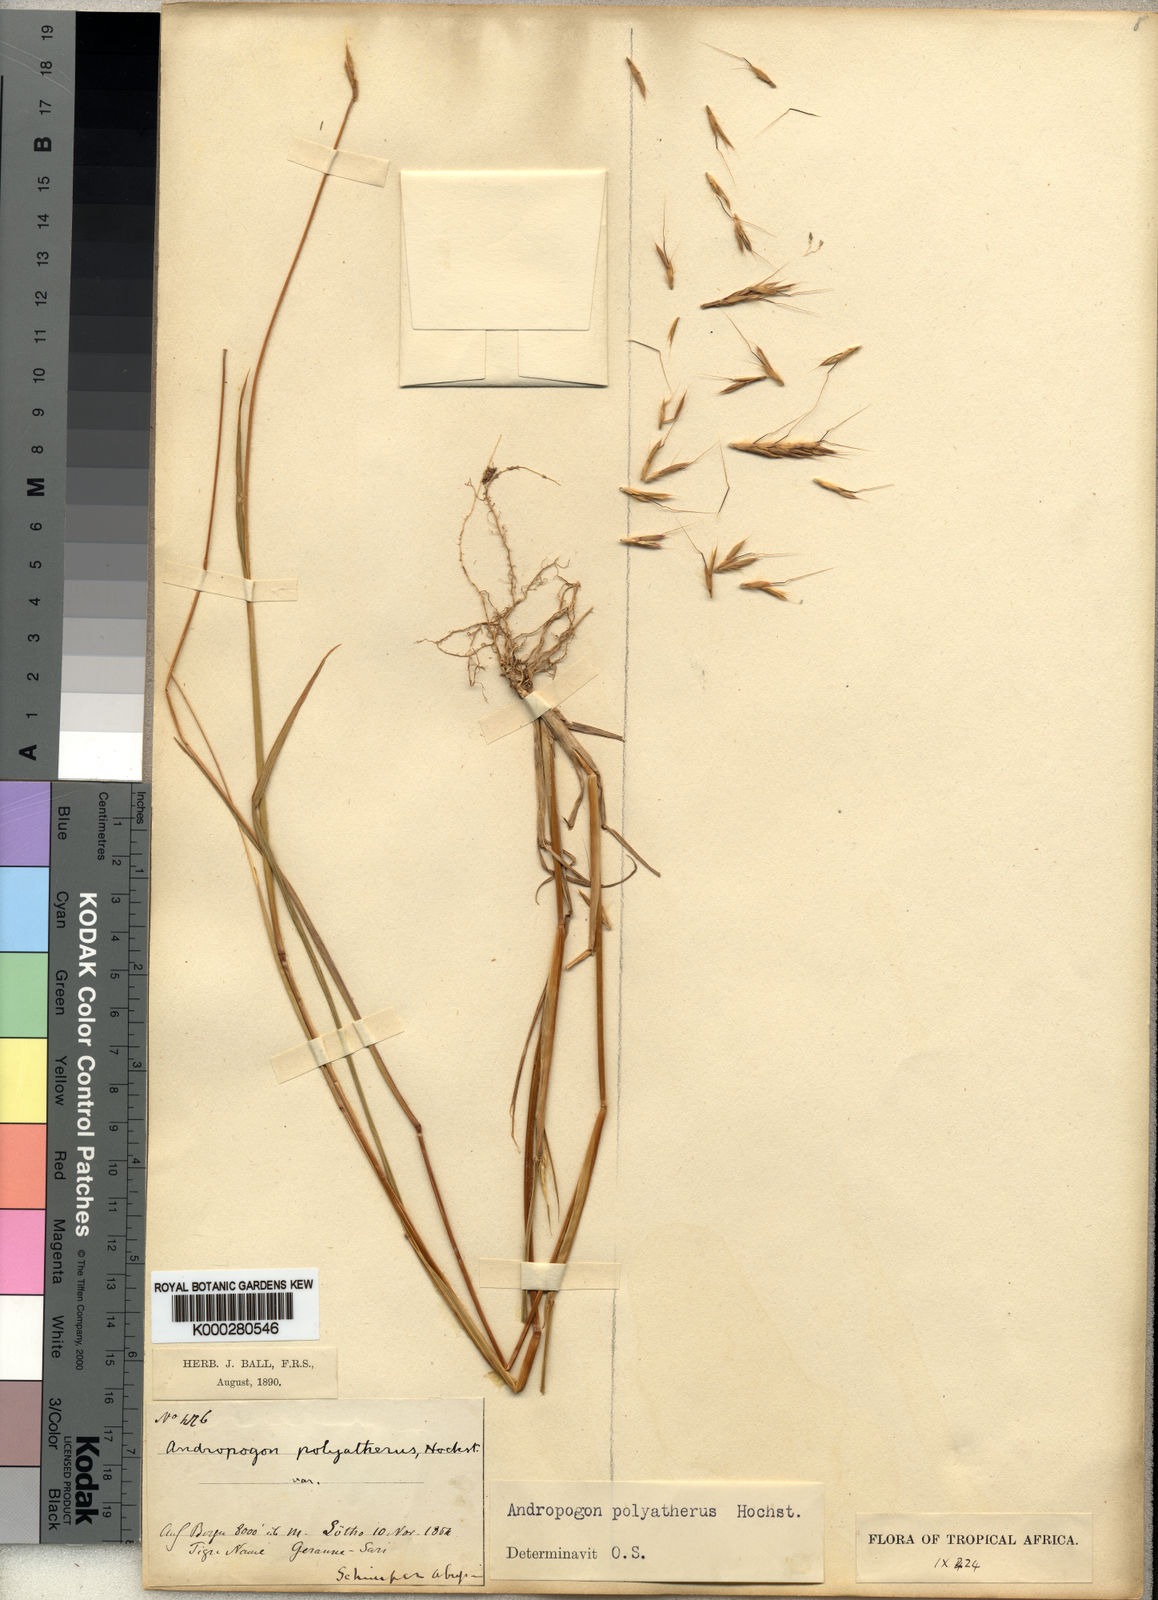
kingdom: Plantae
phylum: Tracheophyta
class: Liliopsida
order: Poales
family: Poaceae
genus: Andropogon
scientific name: Andropogon abyssinicus
